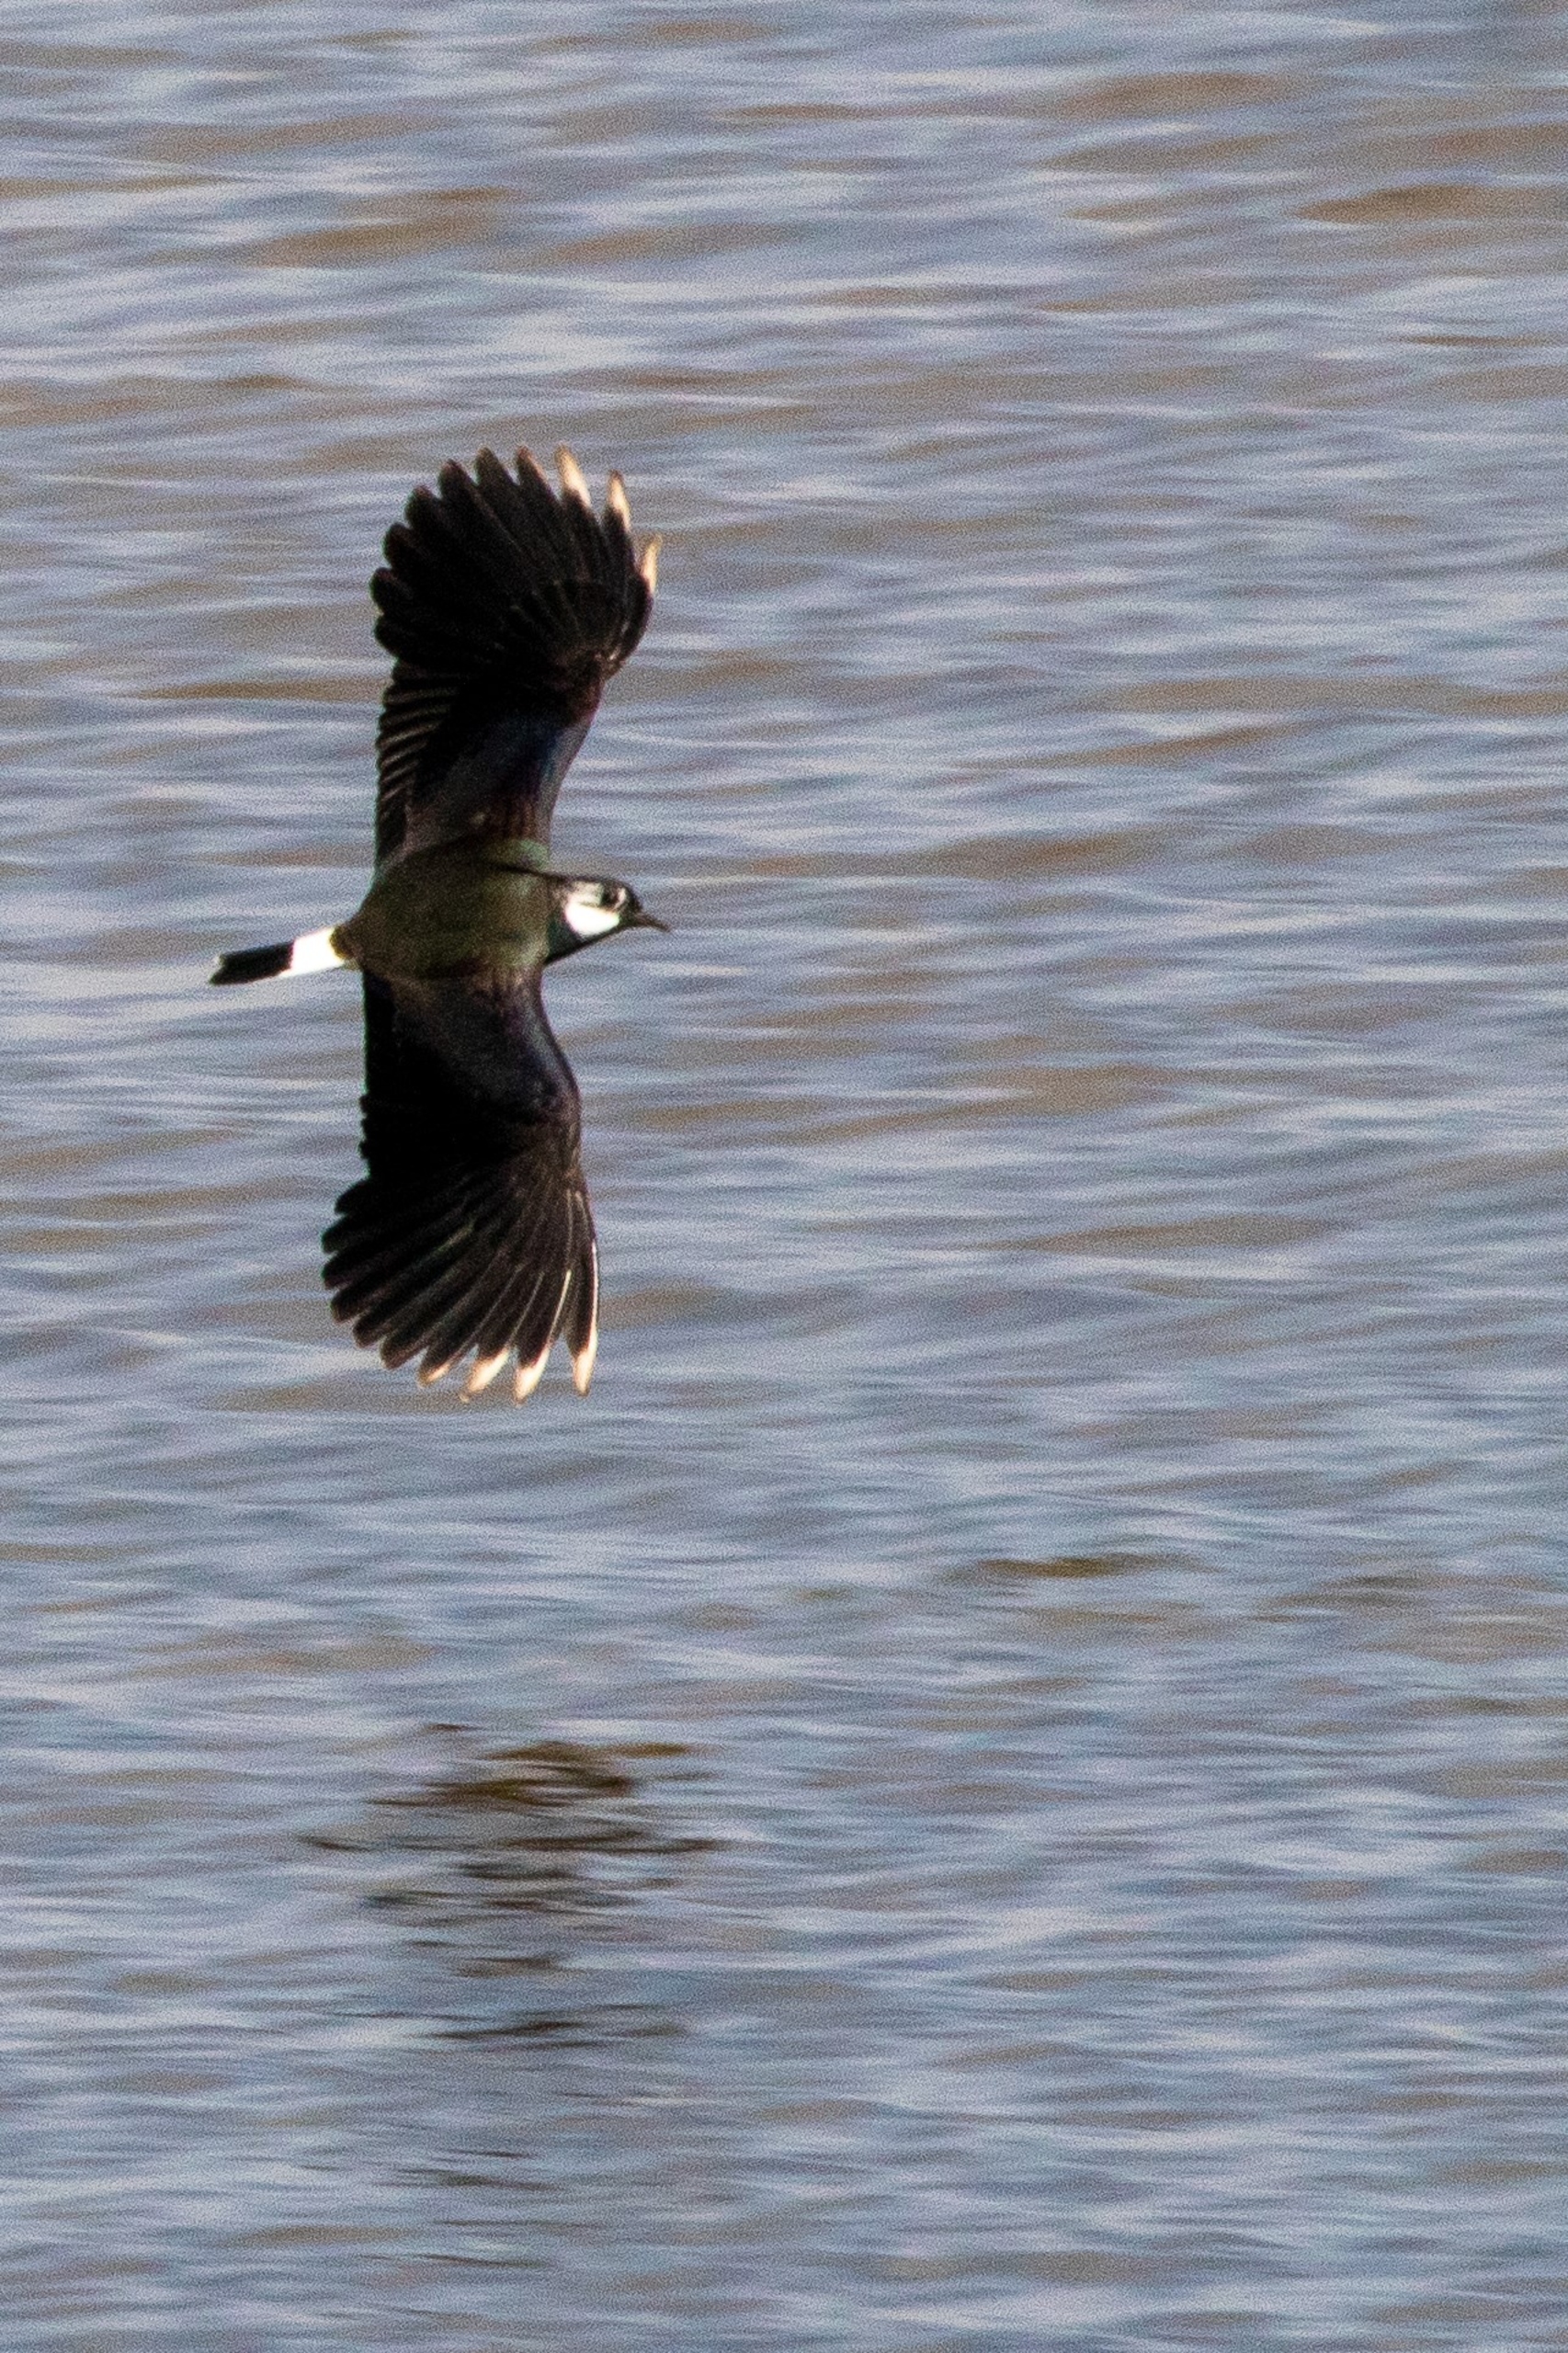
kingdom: Animalia
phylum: Chordata
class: Aves
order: Charadriiformes
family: Charadriidae
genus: Vanellus
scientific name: Vanellus vanellus
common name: Vibe
